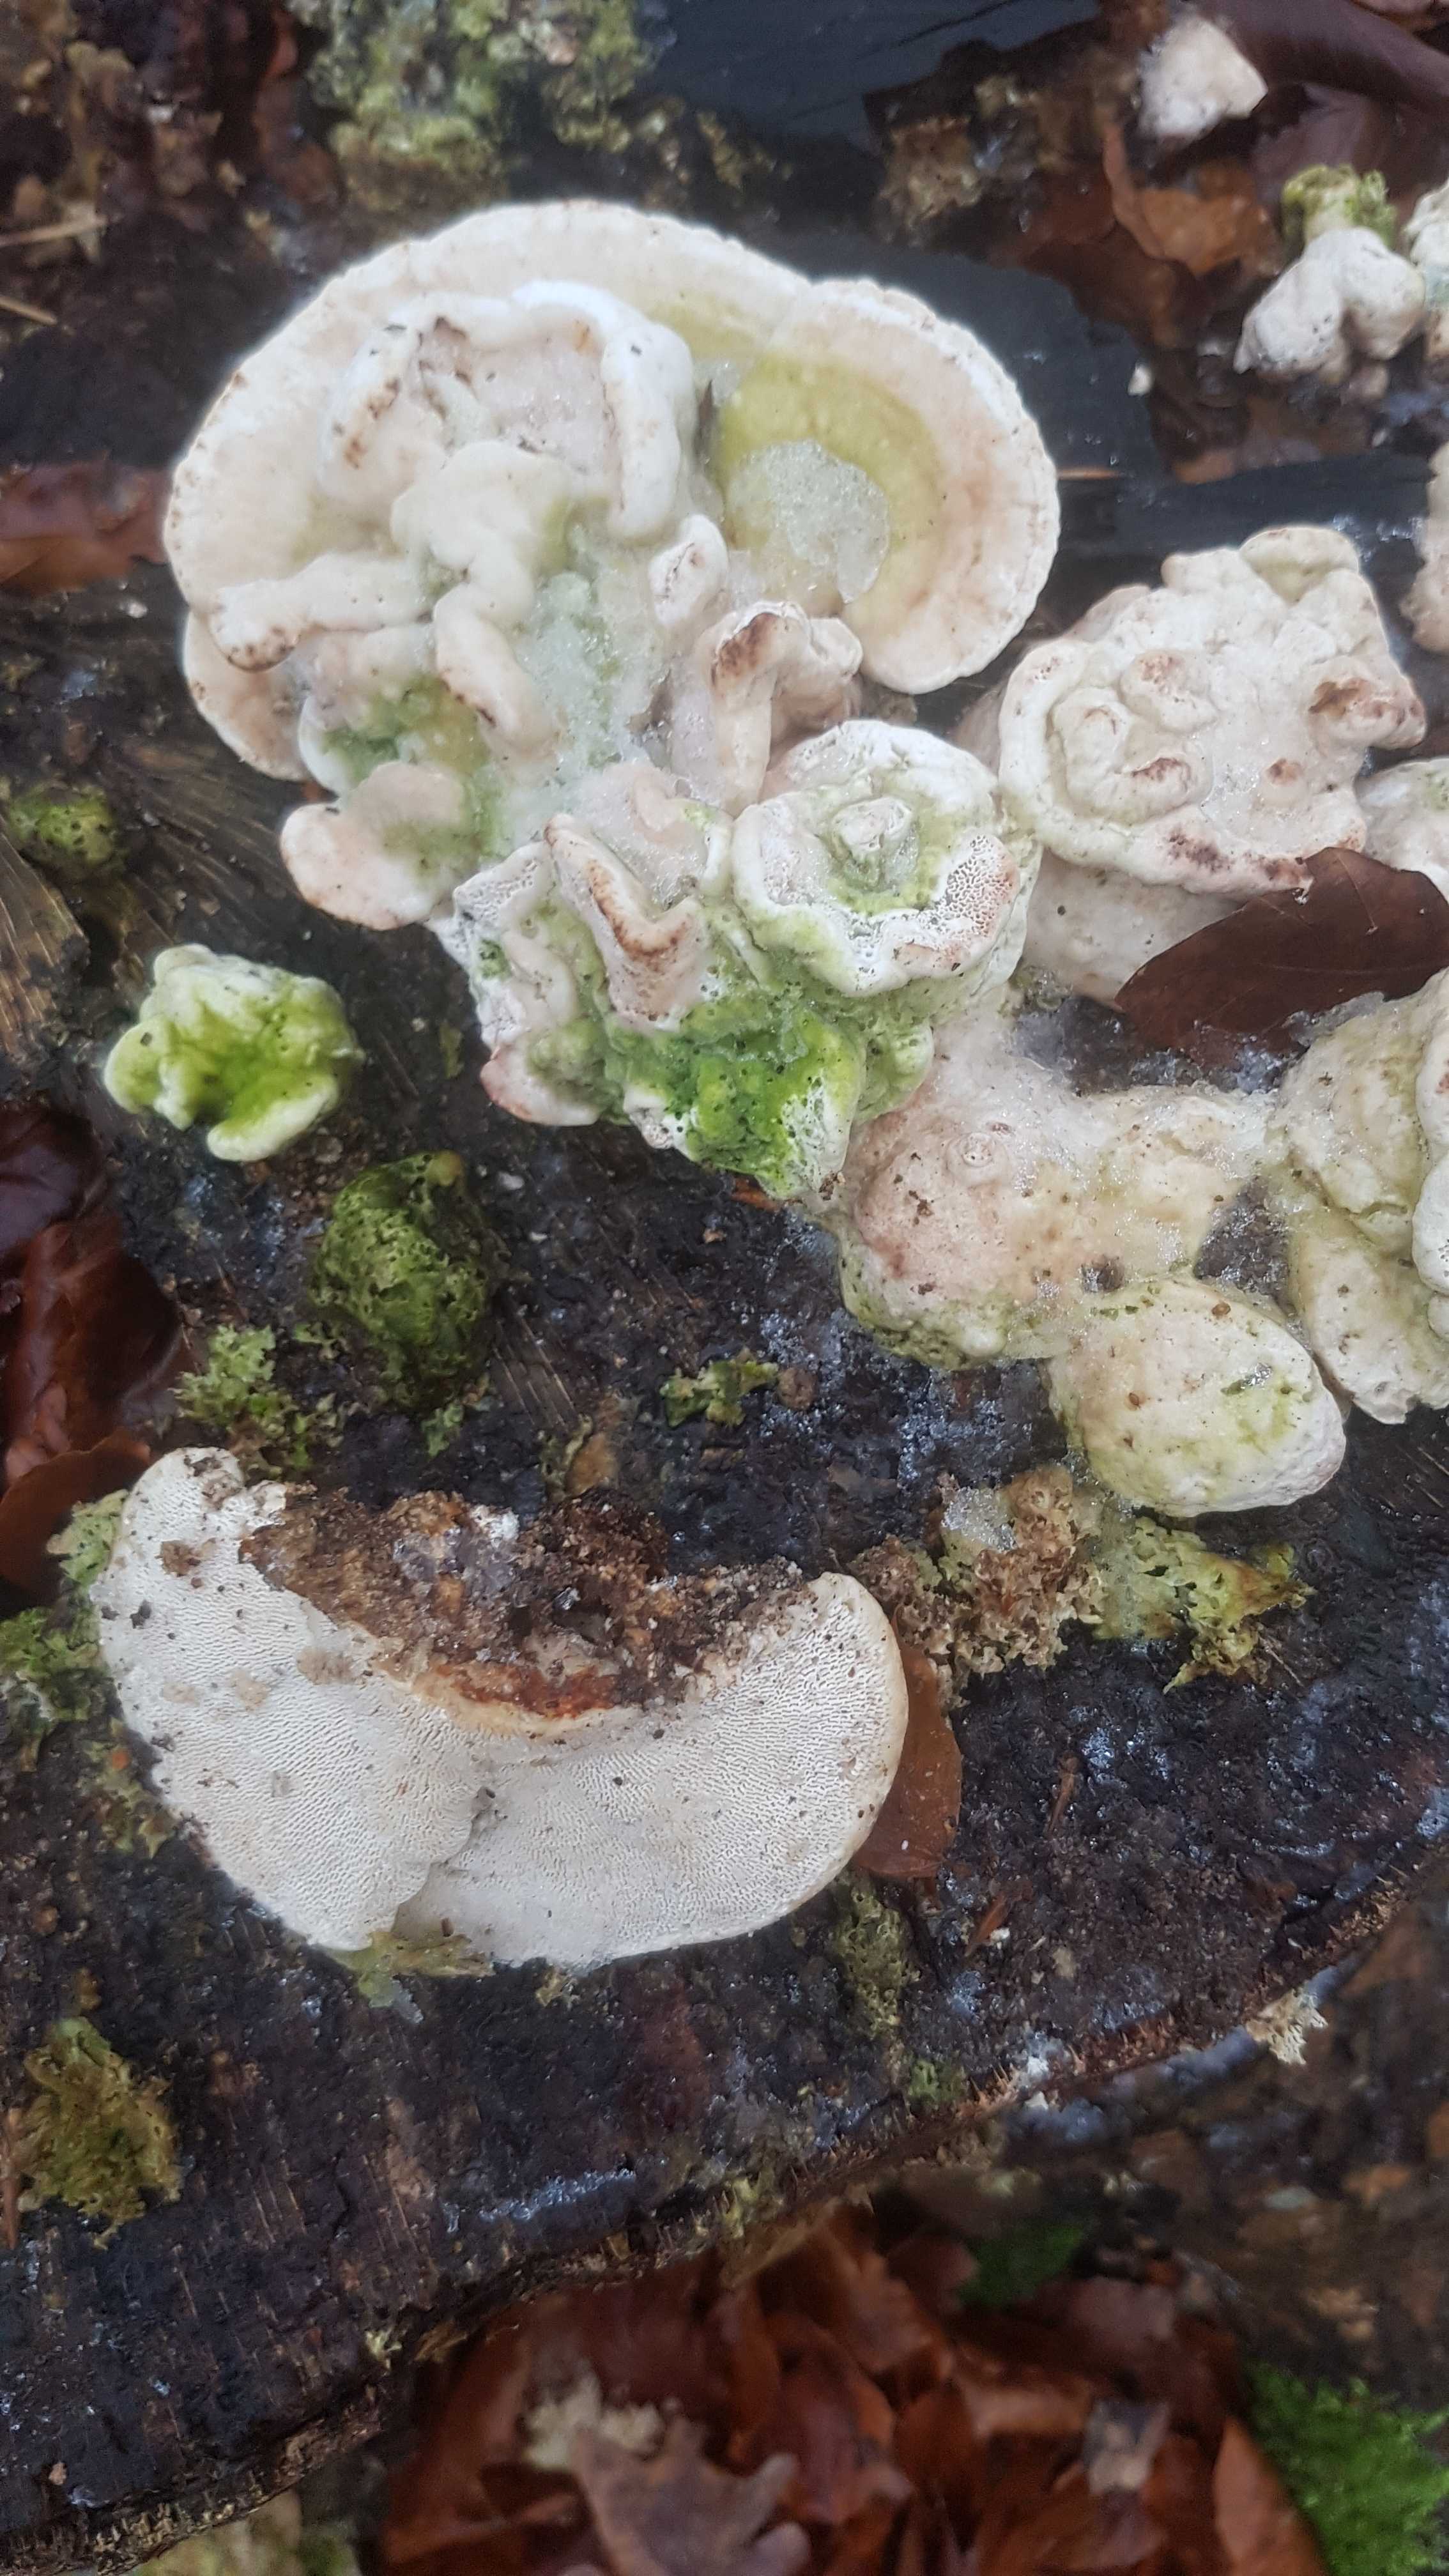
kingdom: Fungi
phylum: Basidiomycota
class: Agaricomycetes
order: Polyporales
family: Polyporaceae
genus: Trametes
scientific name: Trametes gibbosa
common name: puklet læderporesvamp
